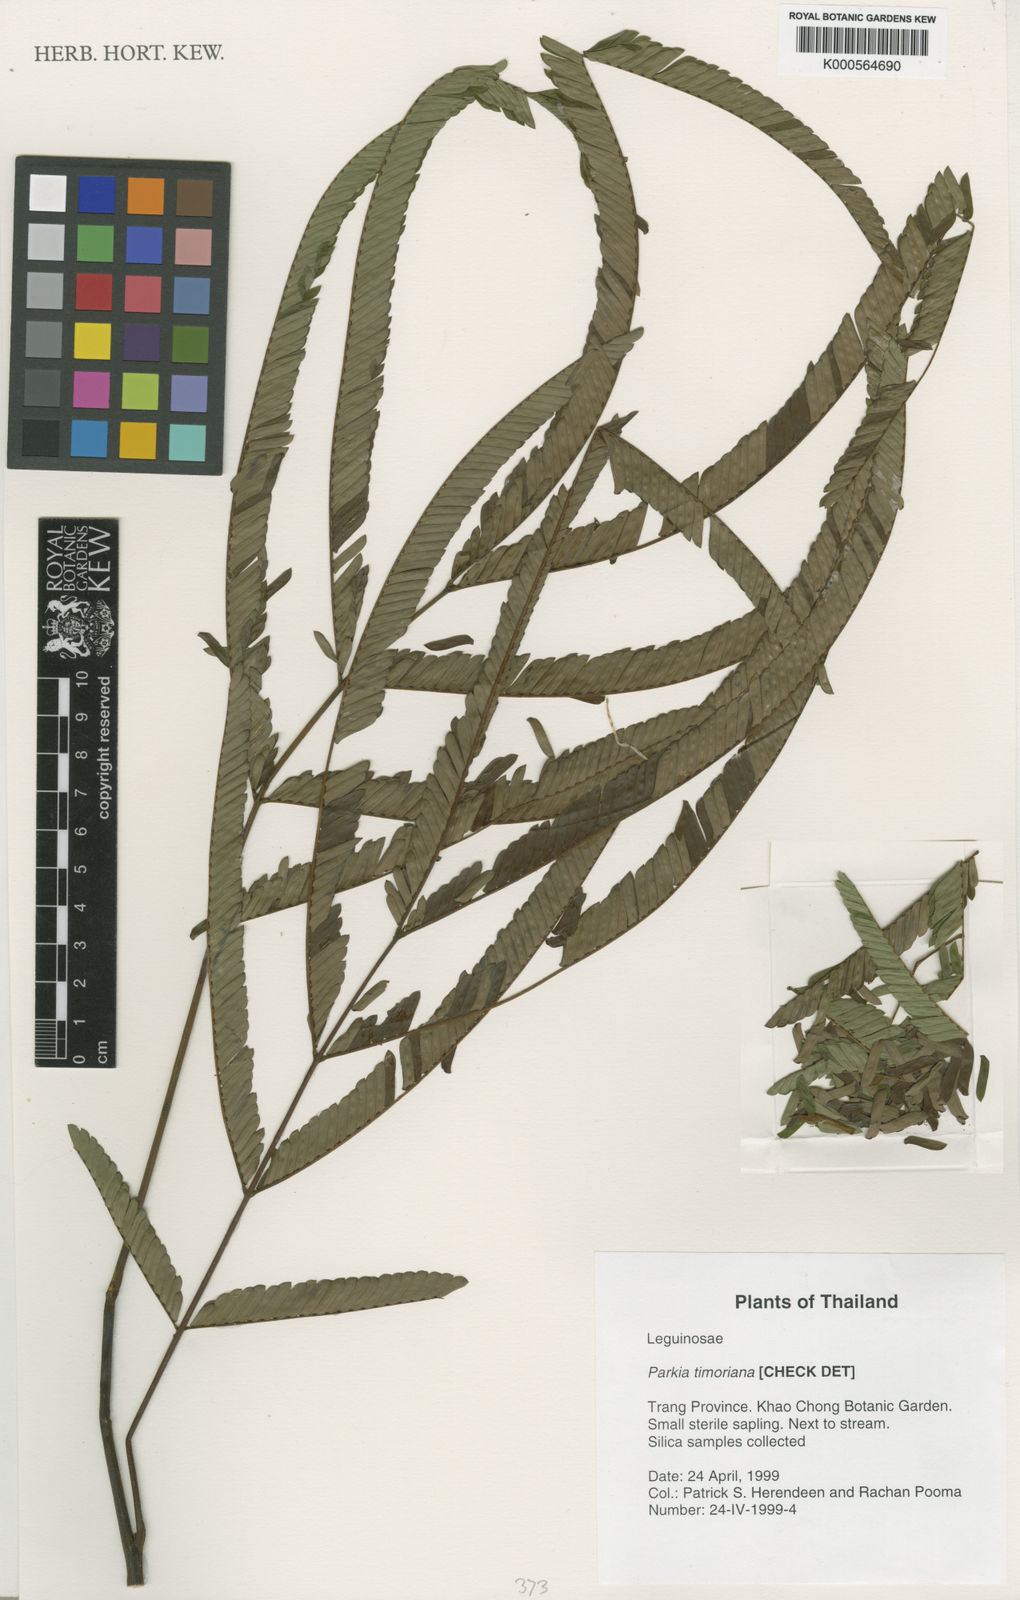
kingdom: Plantae
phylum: Tracheophyta
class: Magnoliopsida
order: Fabales
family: Fabaceae
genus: Parkia
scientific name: Parkia timoriana
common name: Legume
